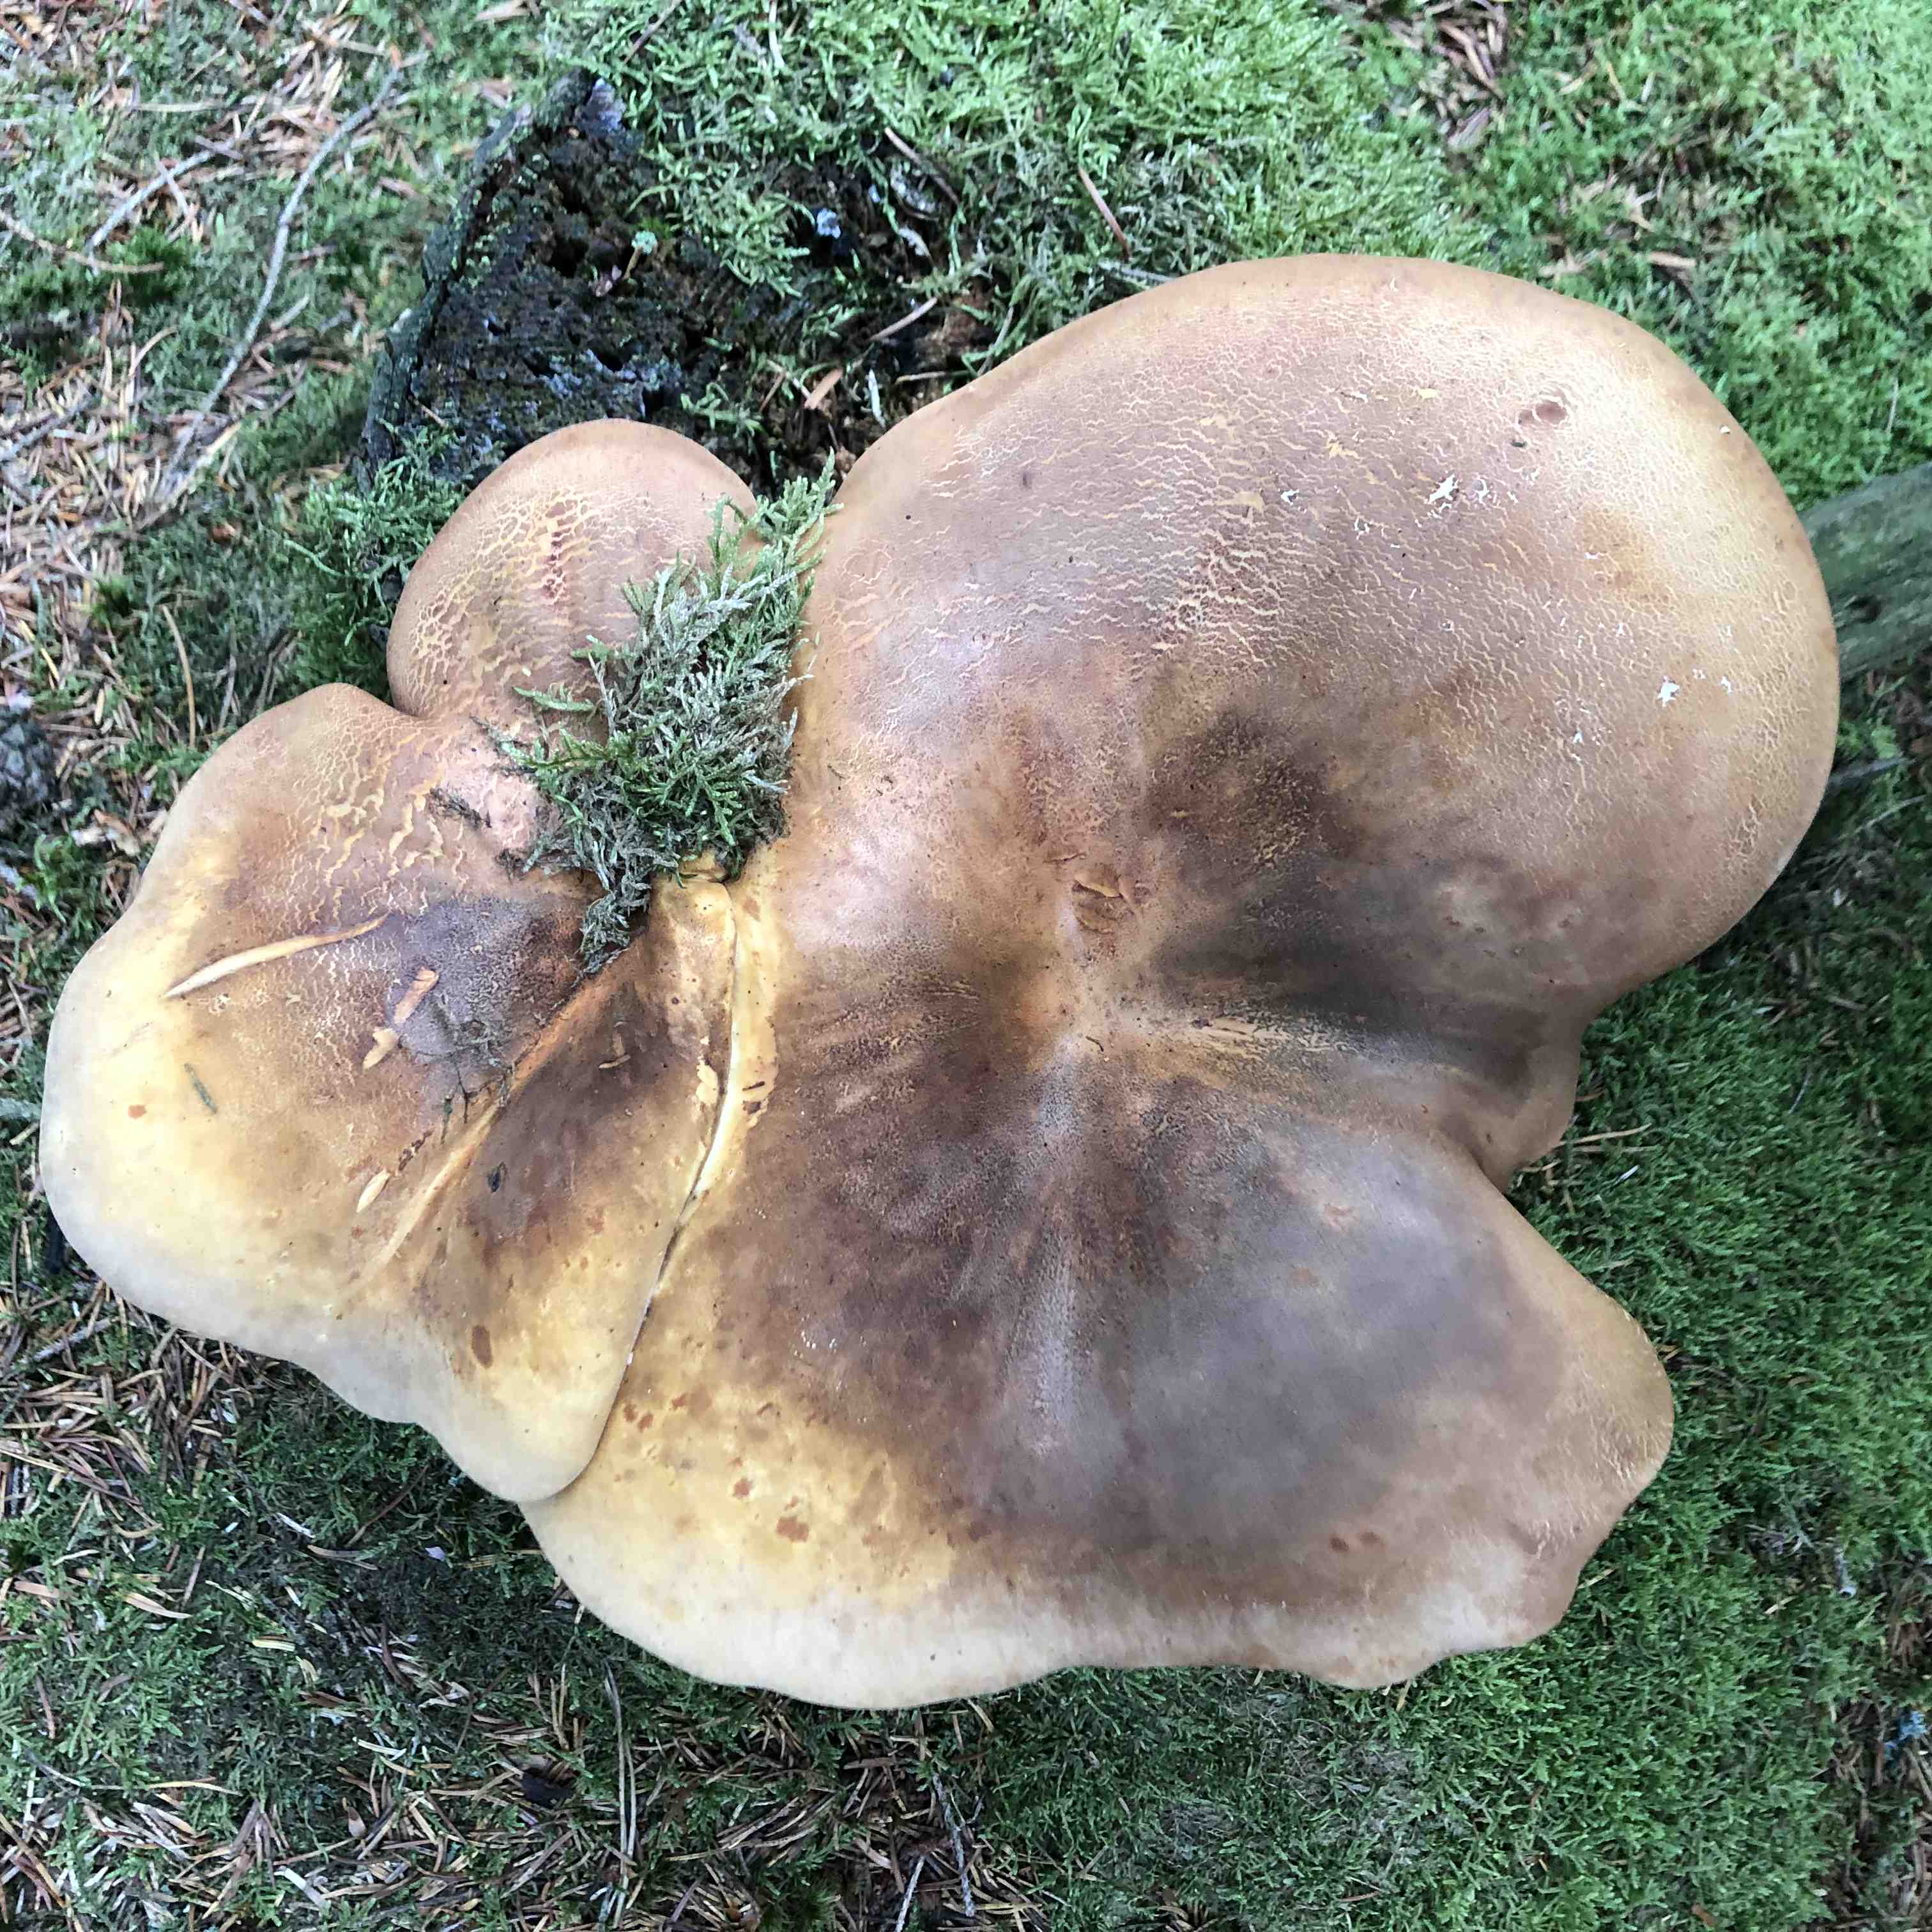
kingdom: Fungi
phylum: Basidiomycota
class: Agaricomycetes
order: Boletales
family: Tapinellaceae
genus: Tapinella
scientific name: Tapinella atrotomentosa
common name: sortfiltet viftesvamp
